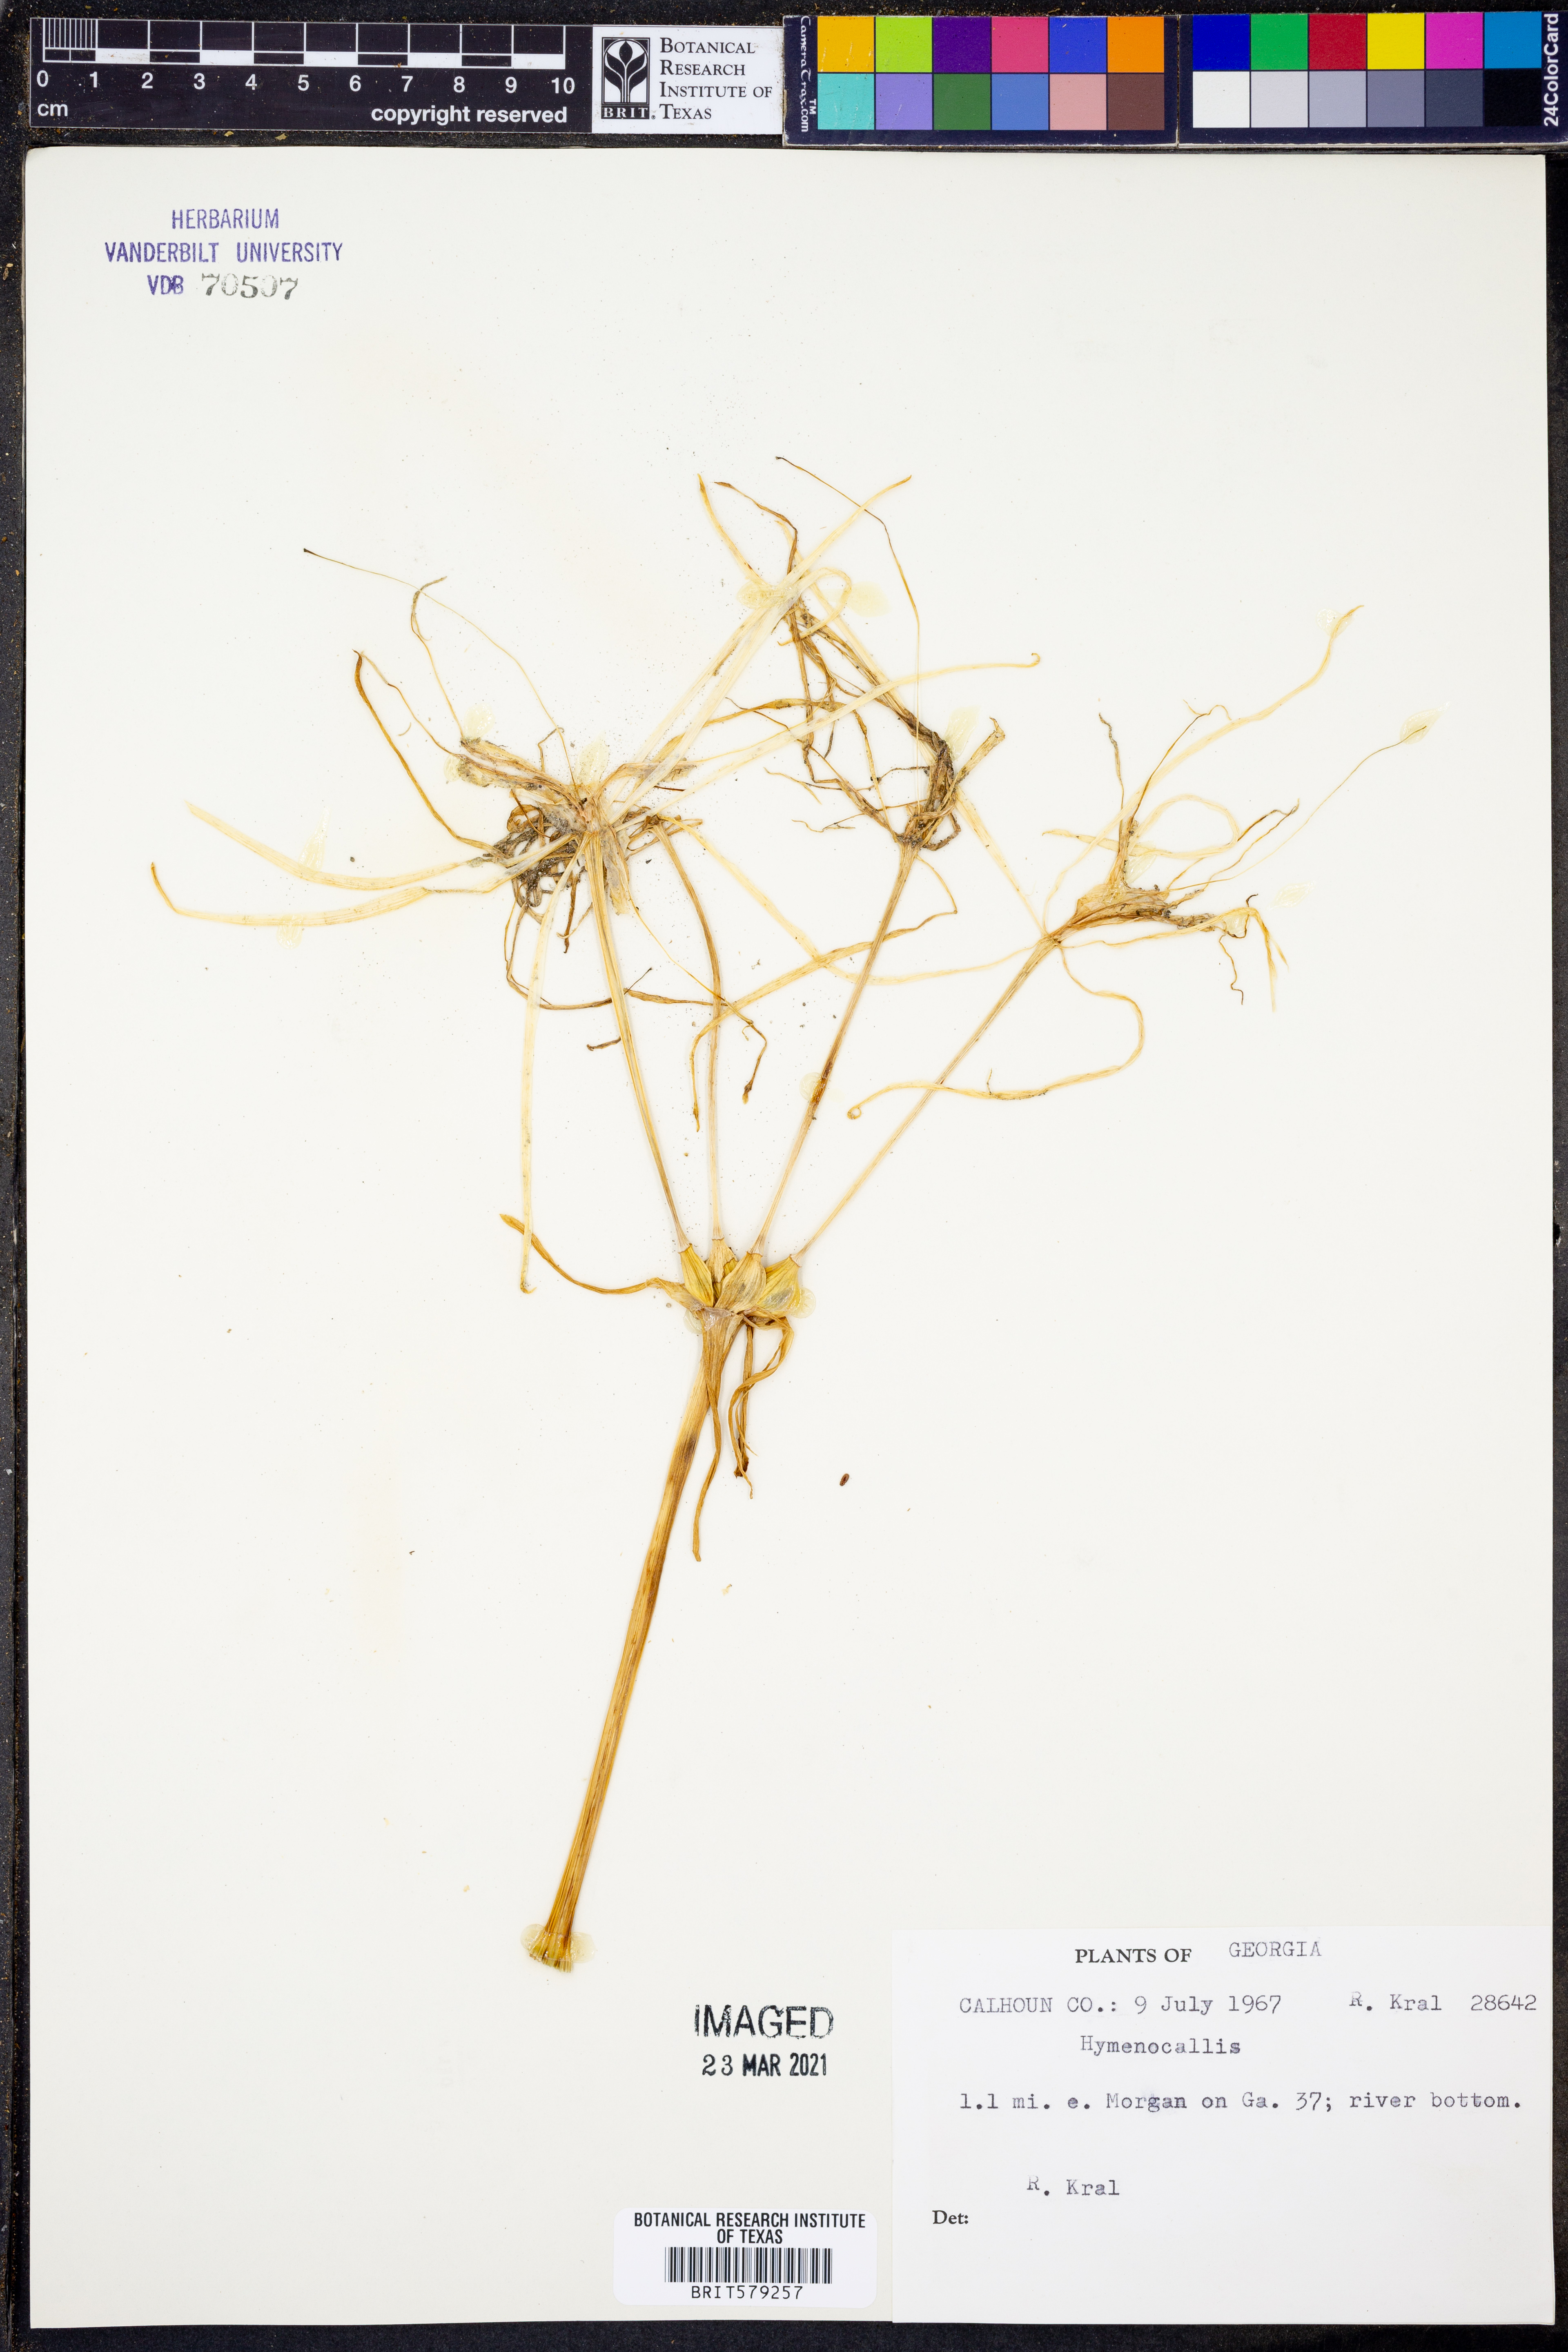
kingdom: Plantae
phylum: Tracheophyta
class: Liliopsida
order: Asparagales
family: Amaryllidaceae
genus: Hymenocallis
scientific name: Hymenocallis
